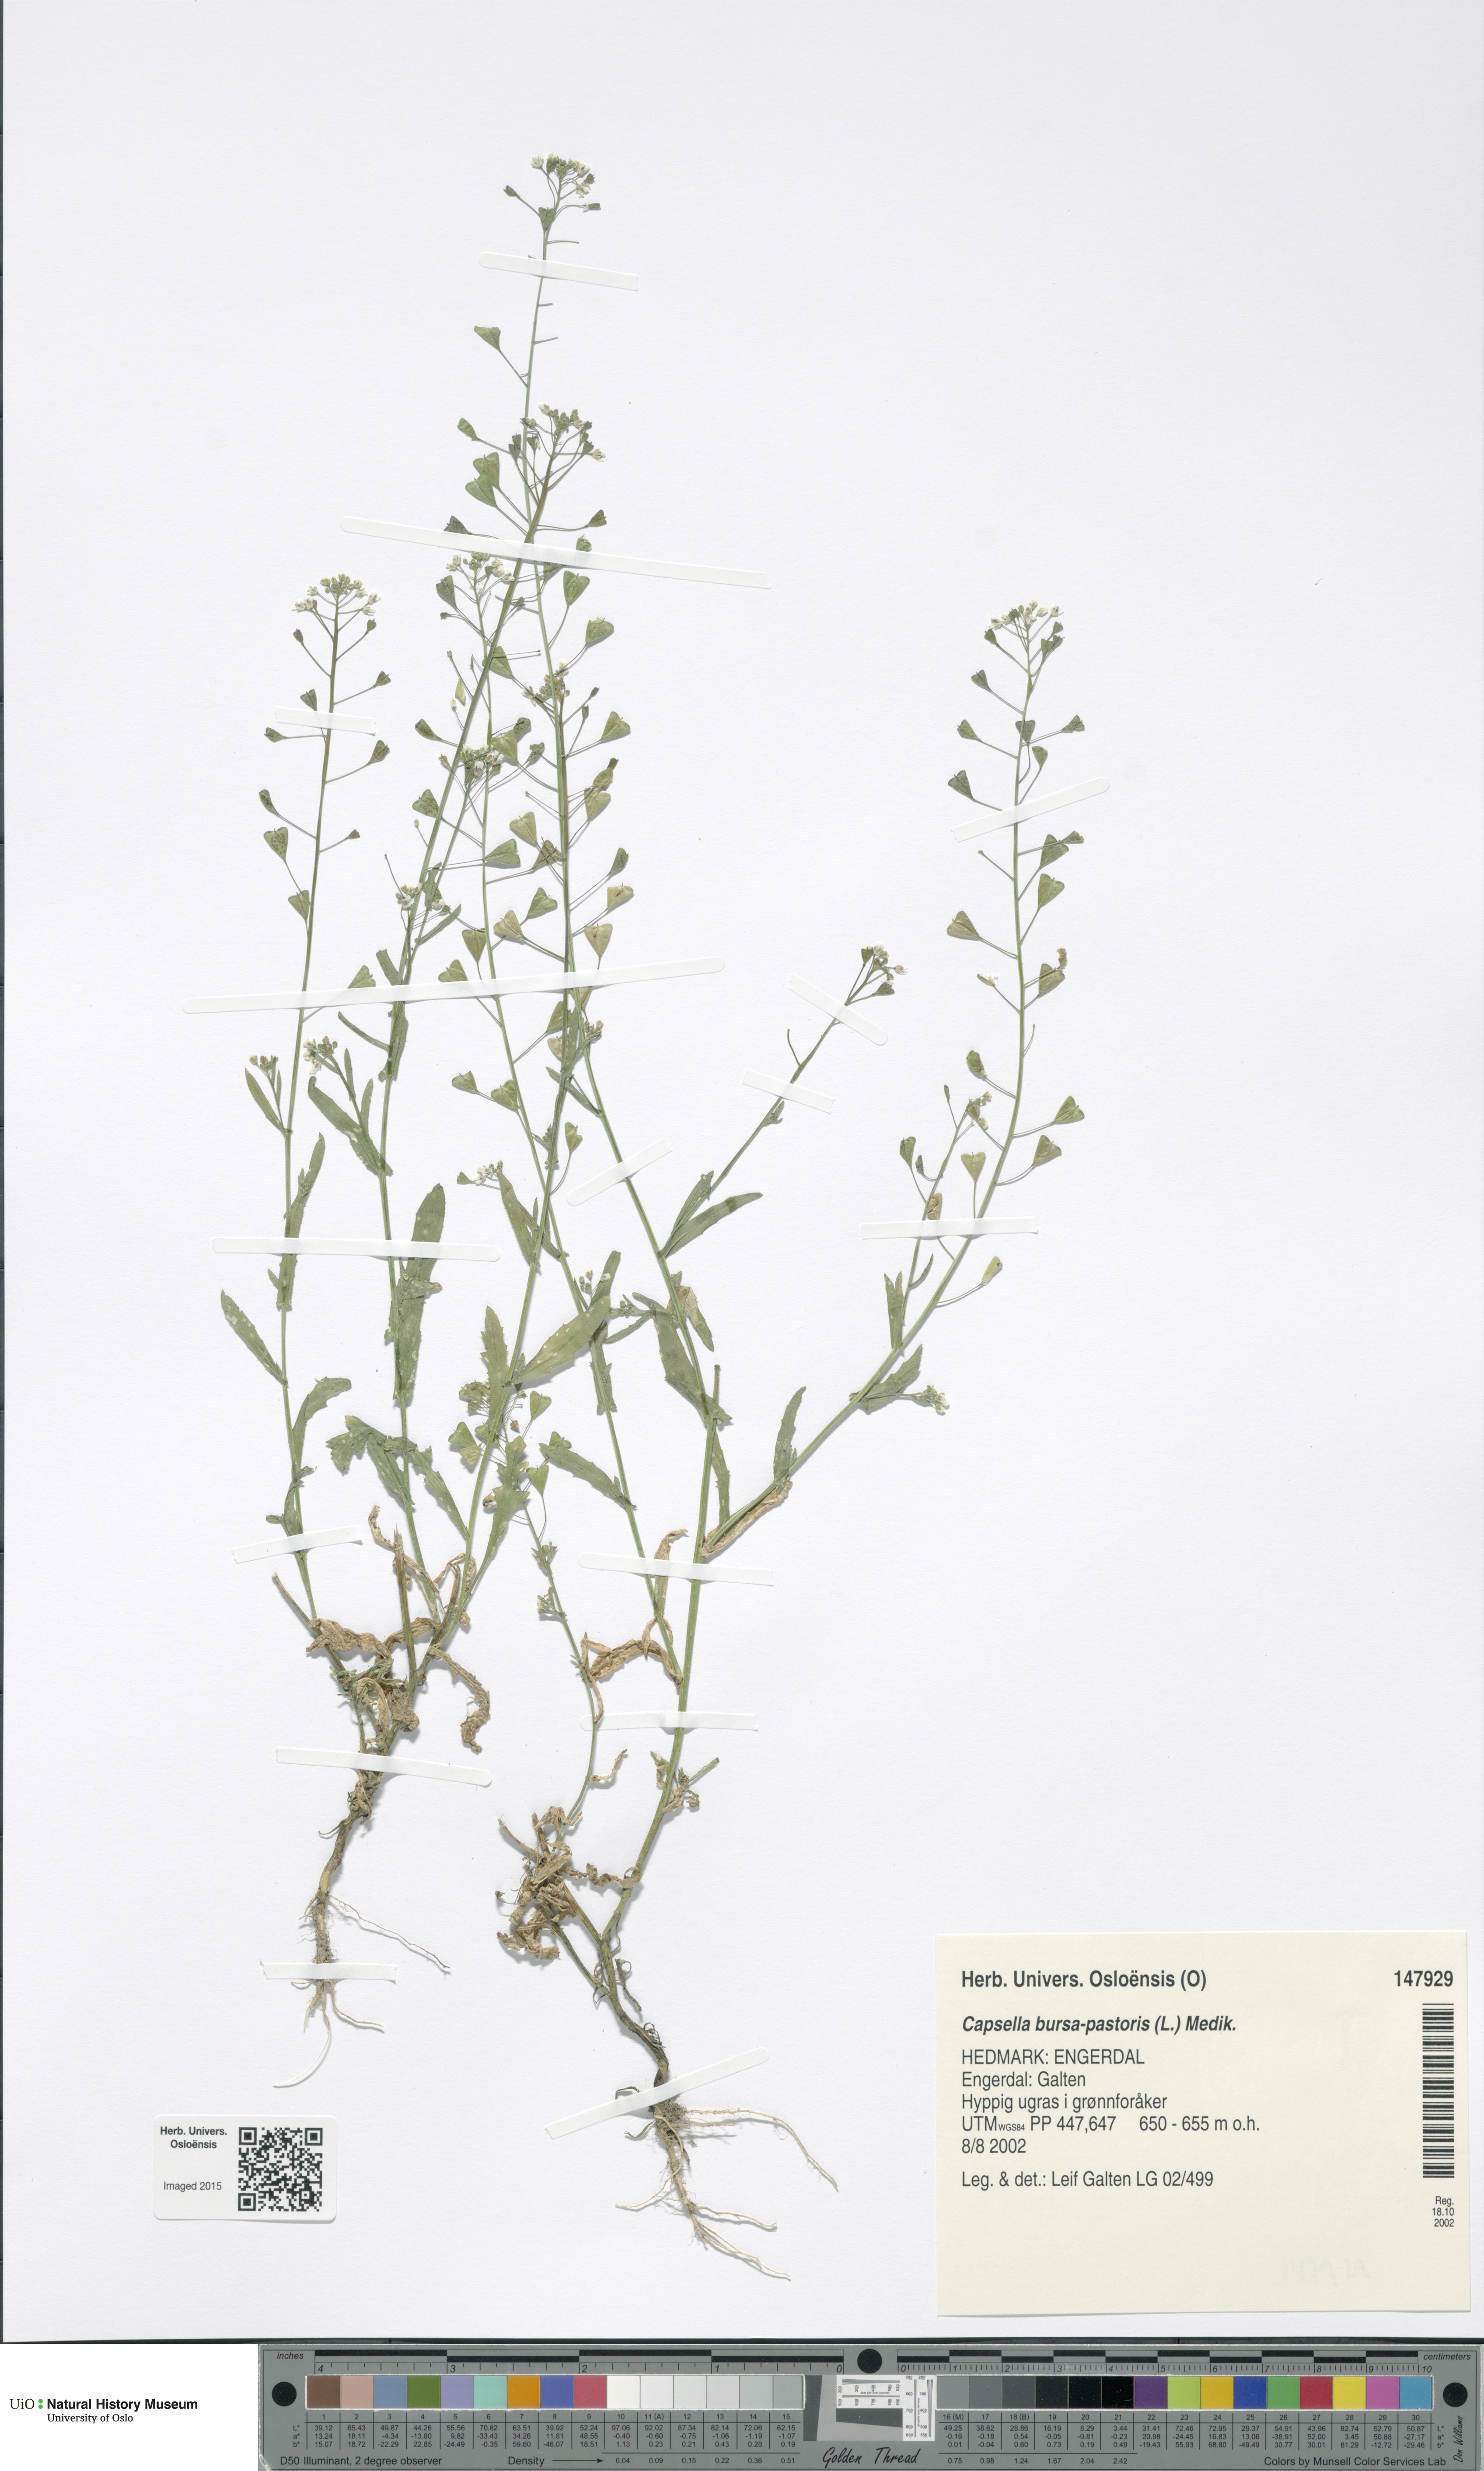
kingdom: Plantae
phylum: Tracheophyta
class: Magnoliopsida
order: Brassicales
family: Brassicaceae
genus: Capsella
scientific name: Capsella bursa-pastoris
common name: Shepherd's purse
